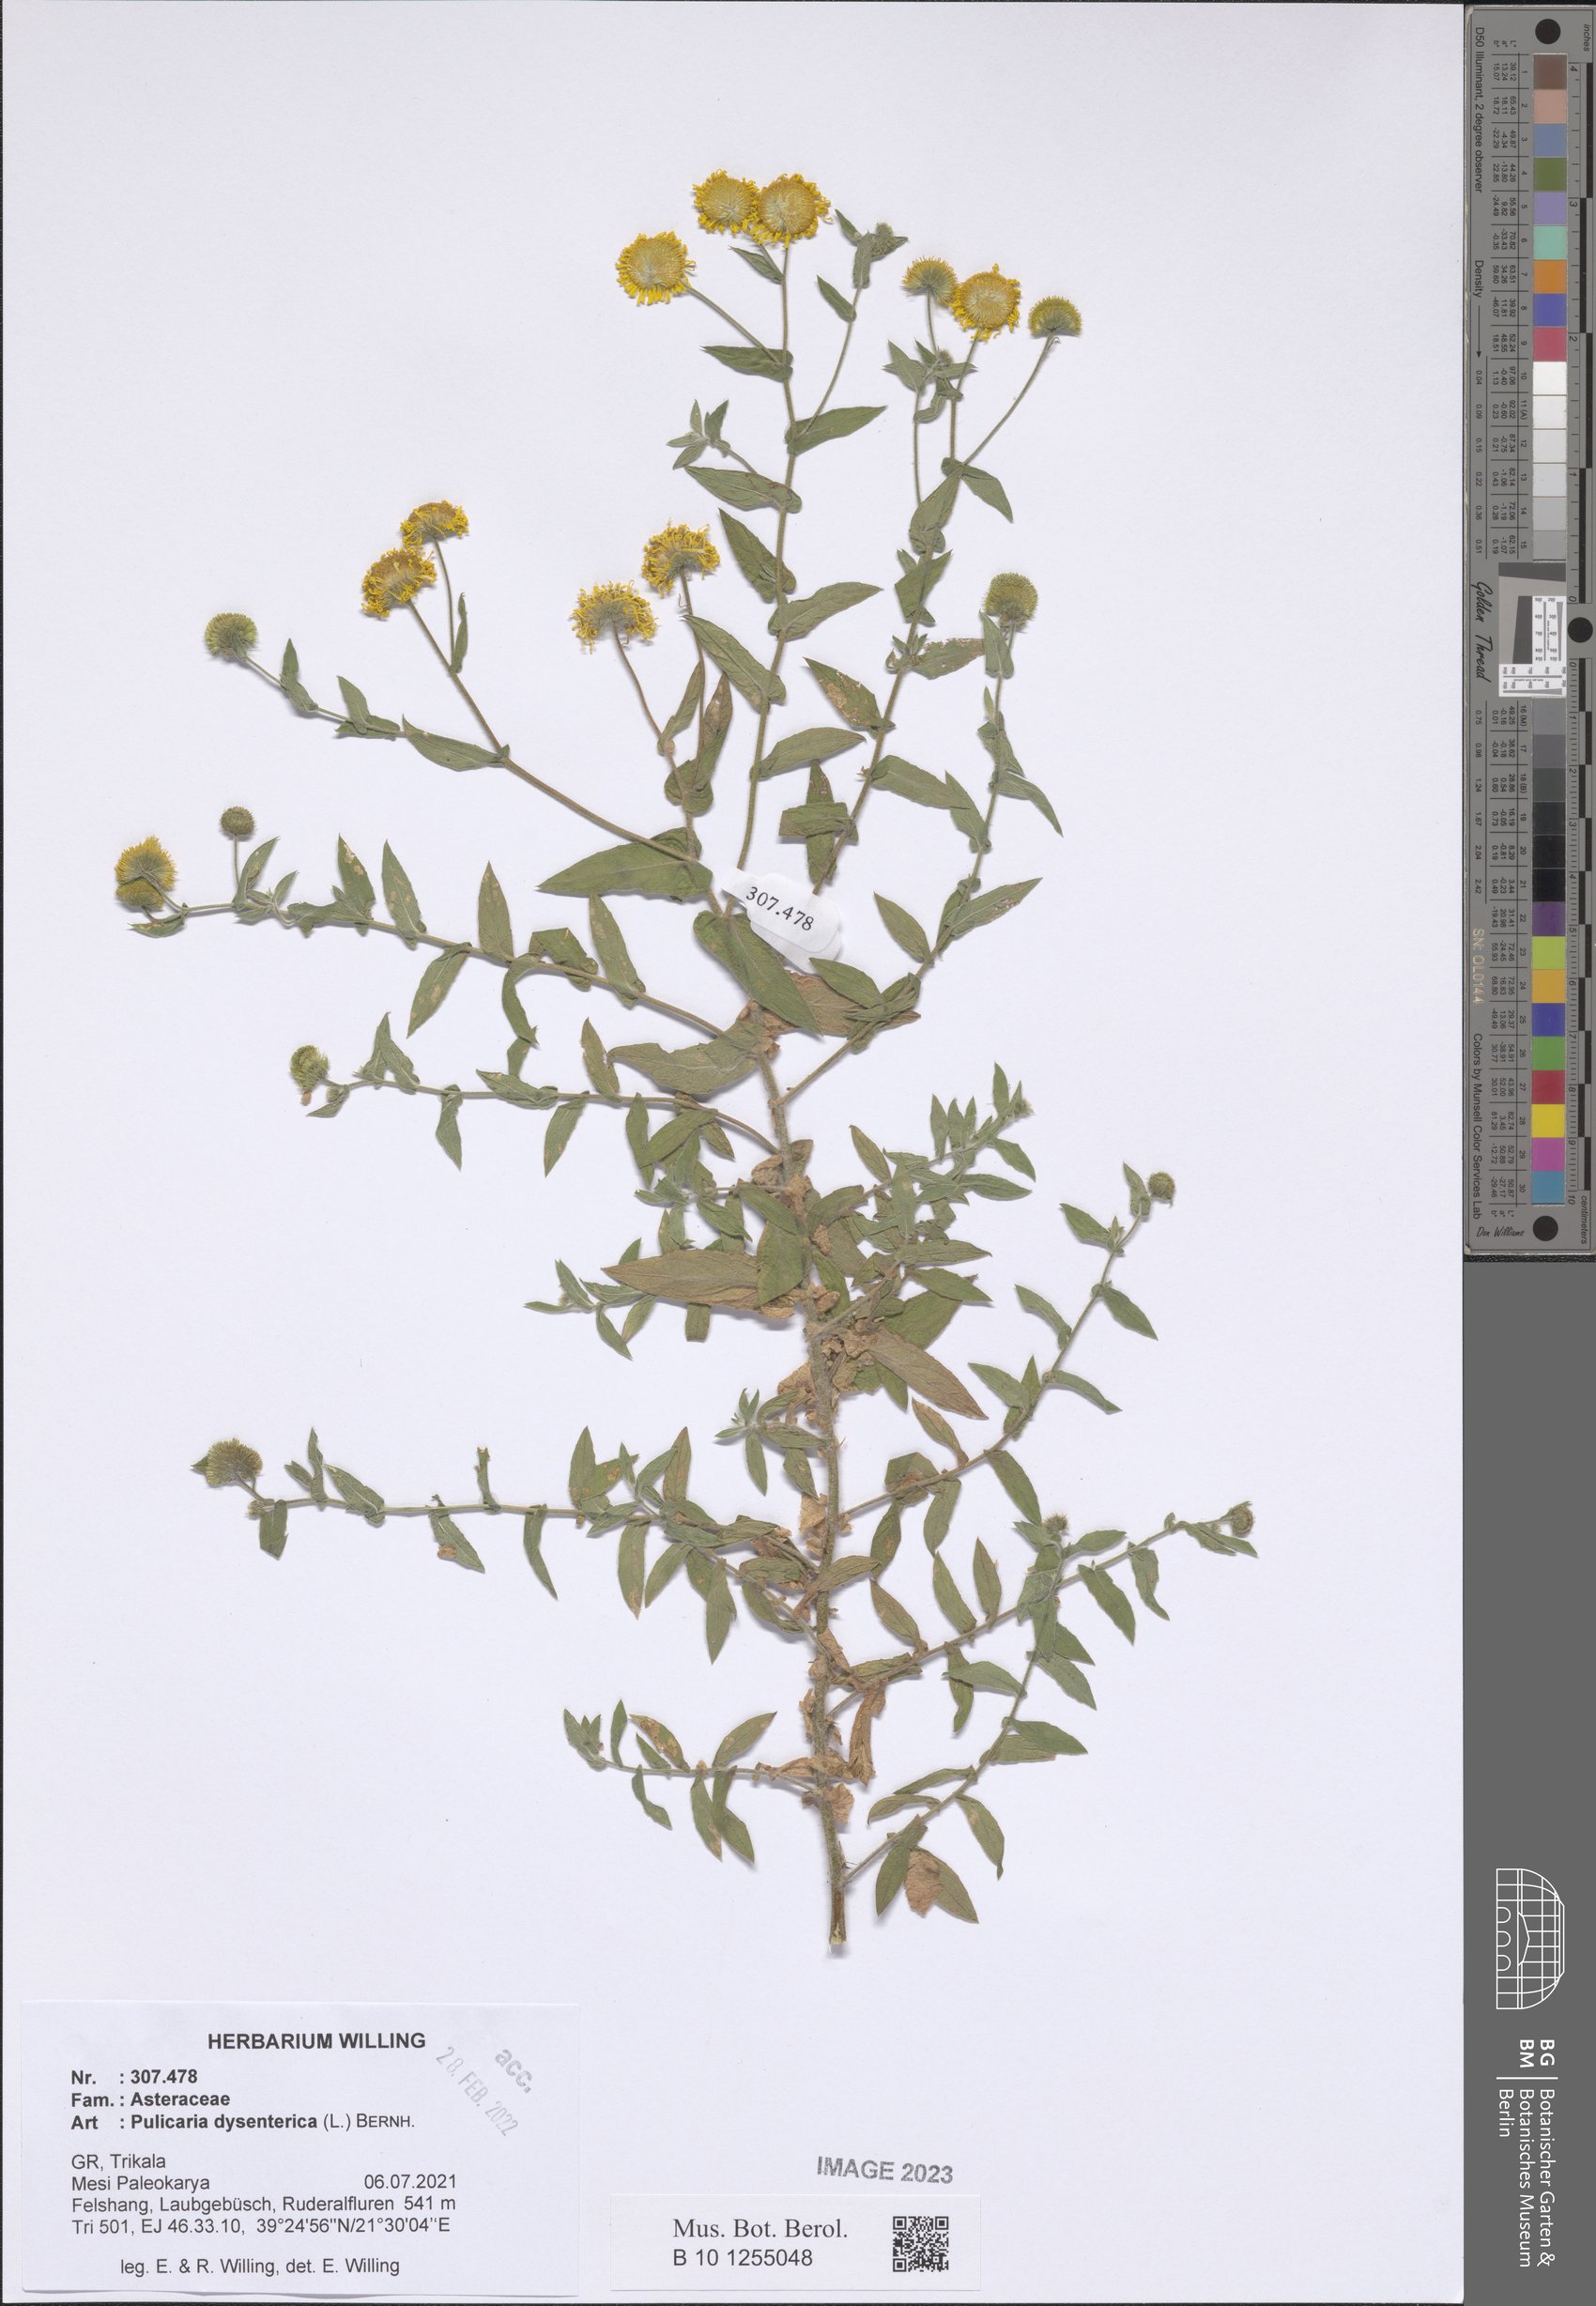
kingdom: Plantae
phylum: Tracheophyta
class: Magnoliopsida
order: Asterales
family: Asteraceae
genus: Pulicaria
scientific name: Pulicaria dysenterica
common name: Common fleabane
